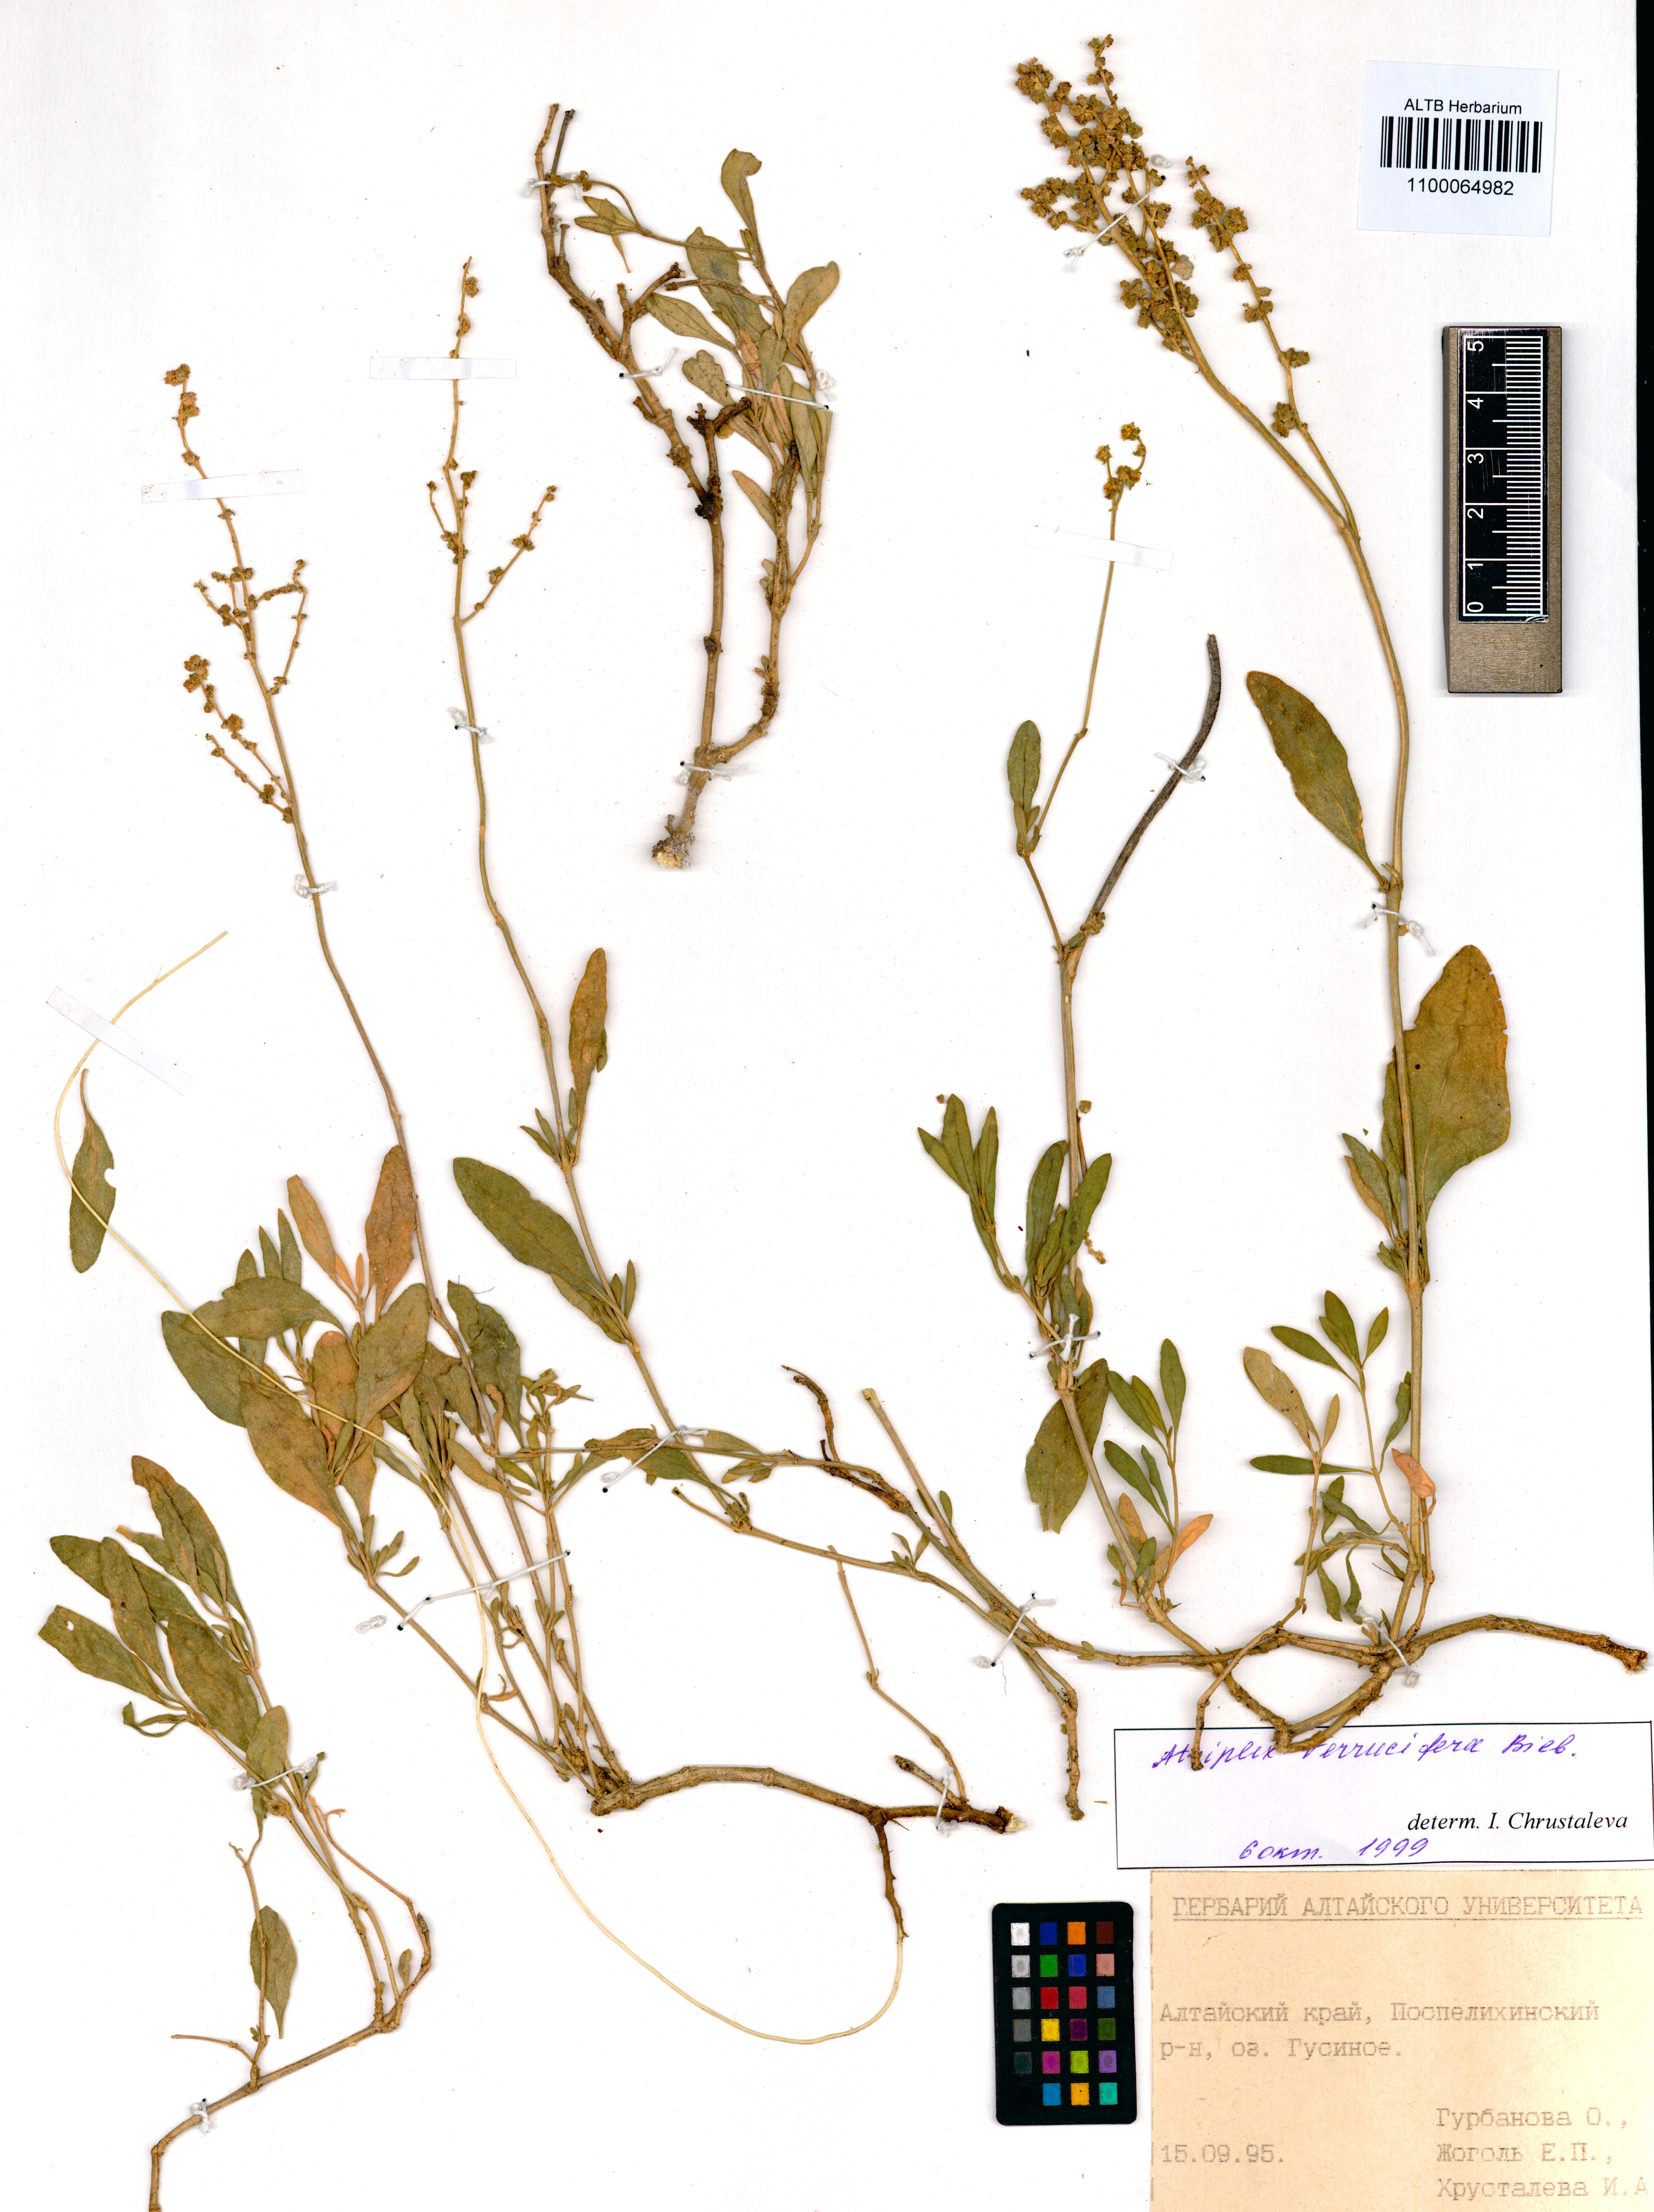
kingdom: Plantae
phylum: Tracheophyta
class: Magnoliopsida
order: Caryophyllales
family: Amaranthaceae
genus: Halimione
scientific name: Halimione verrucifera
